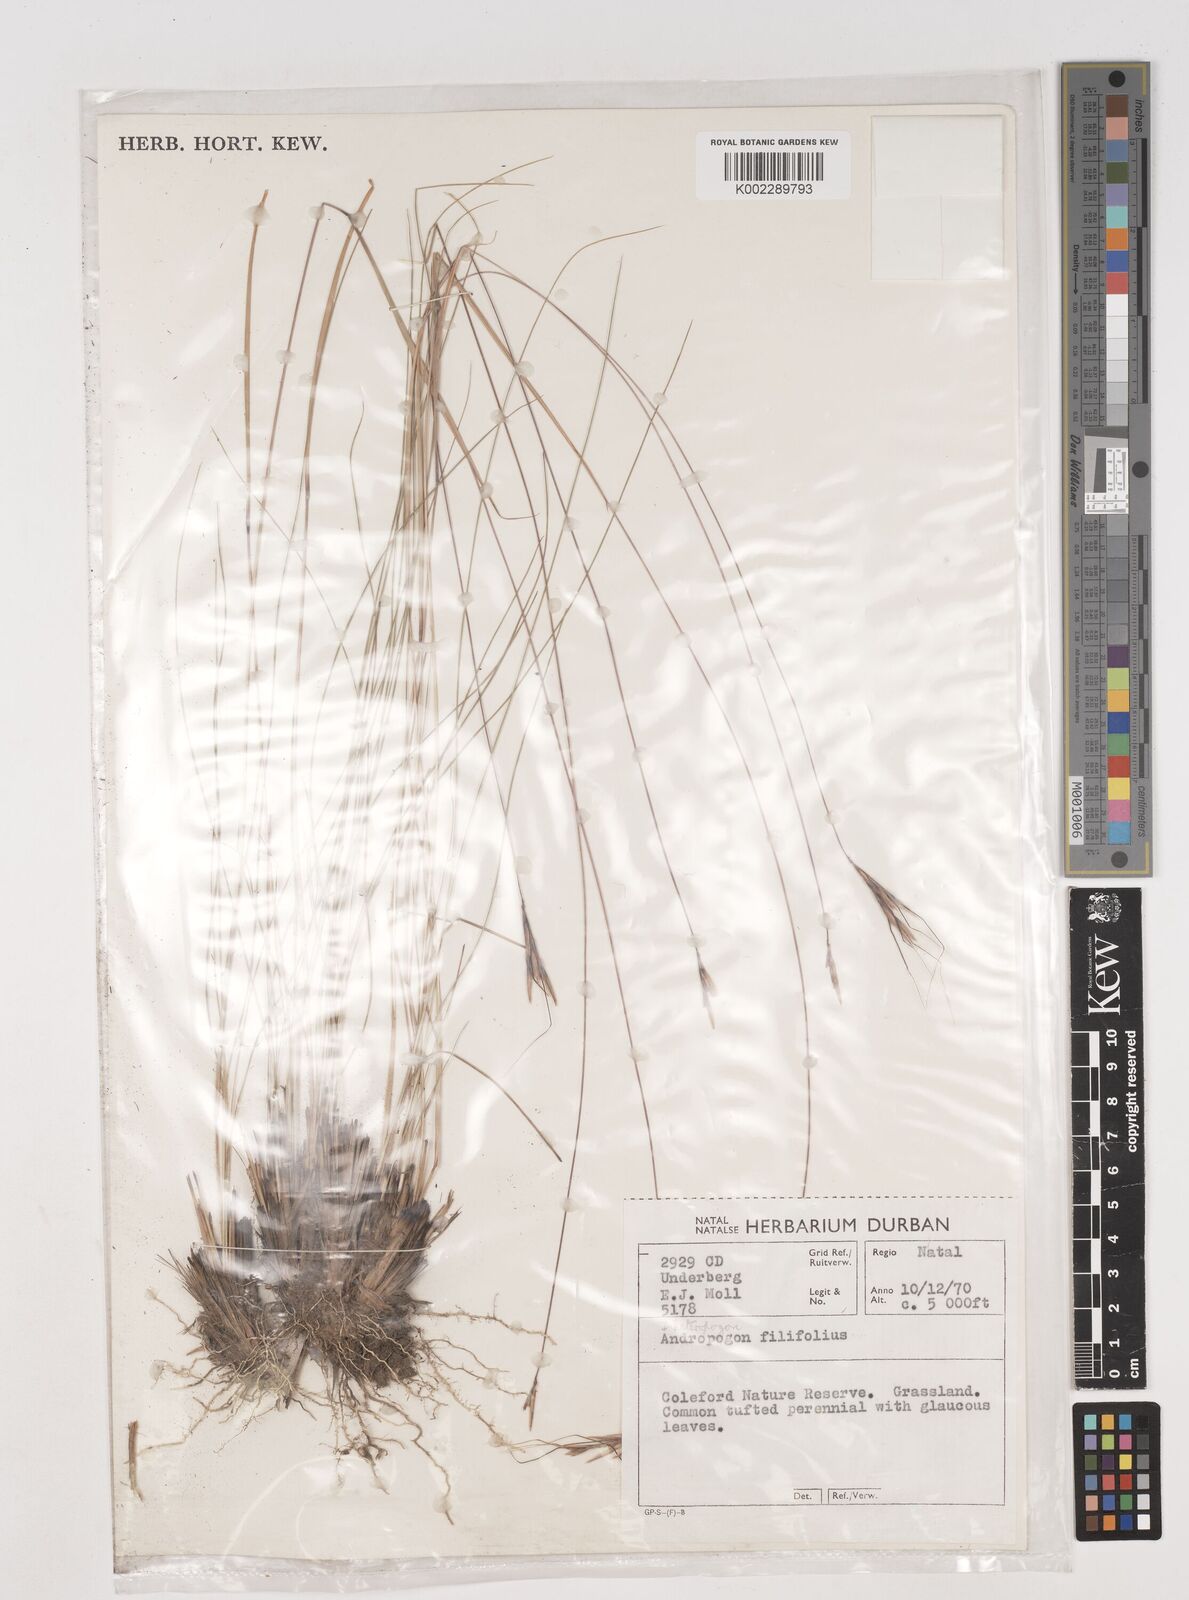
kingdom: Plantae
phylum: Tracheophyta
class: Liliopsida
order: Poales
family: Poaceae
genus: Diheteropogon
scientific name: Diheteropogon filifolius
